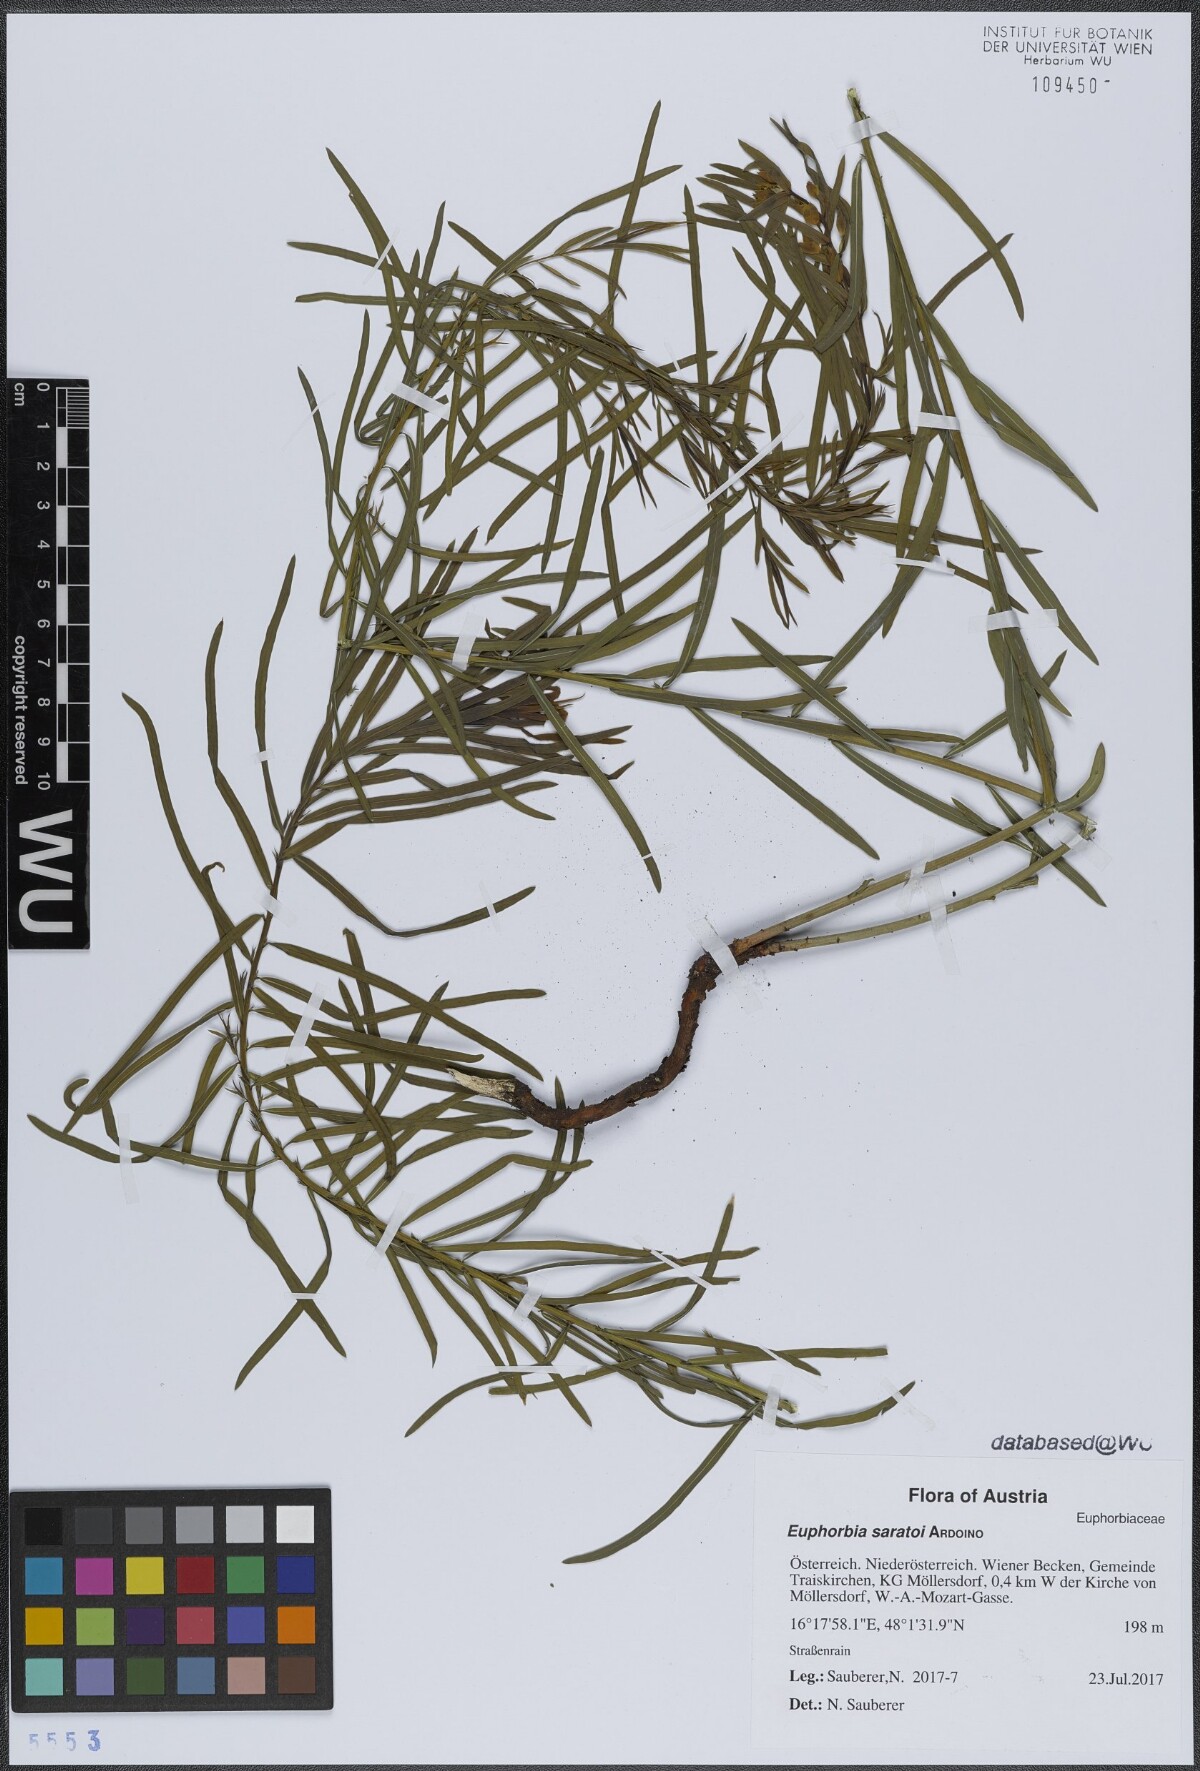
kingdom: Plantae
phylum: Tracheophyta
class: Magnoliopsida
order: Malpighiales
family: Euphorbiaceae
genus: Euphorbia
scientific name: Euphorbia saratoi
